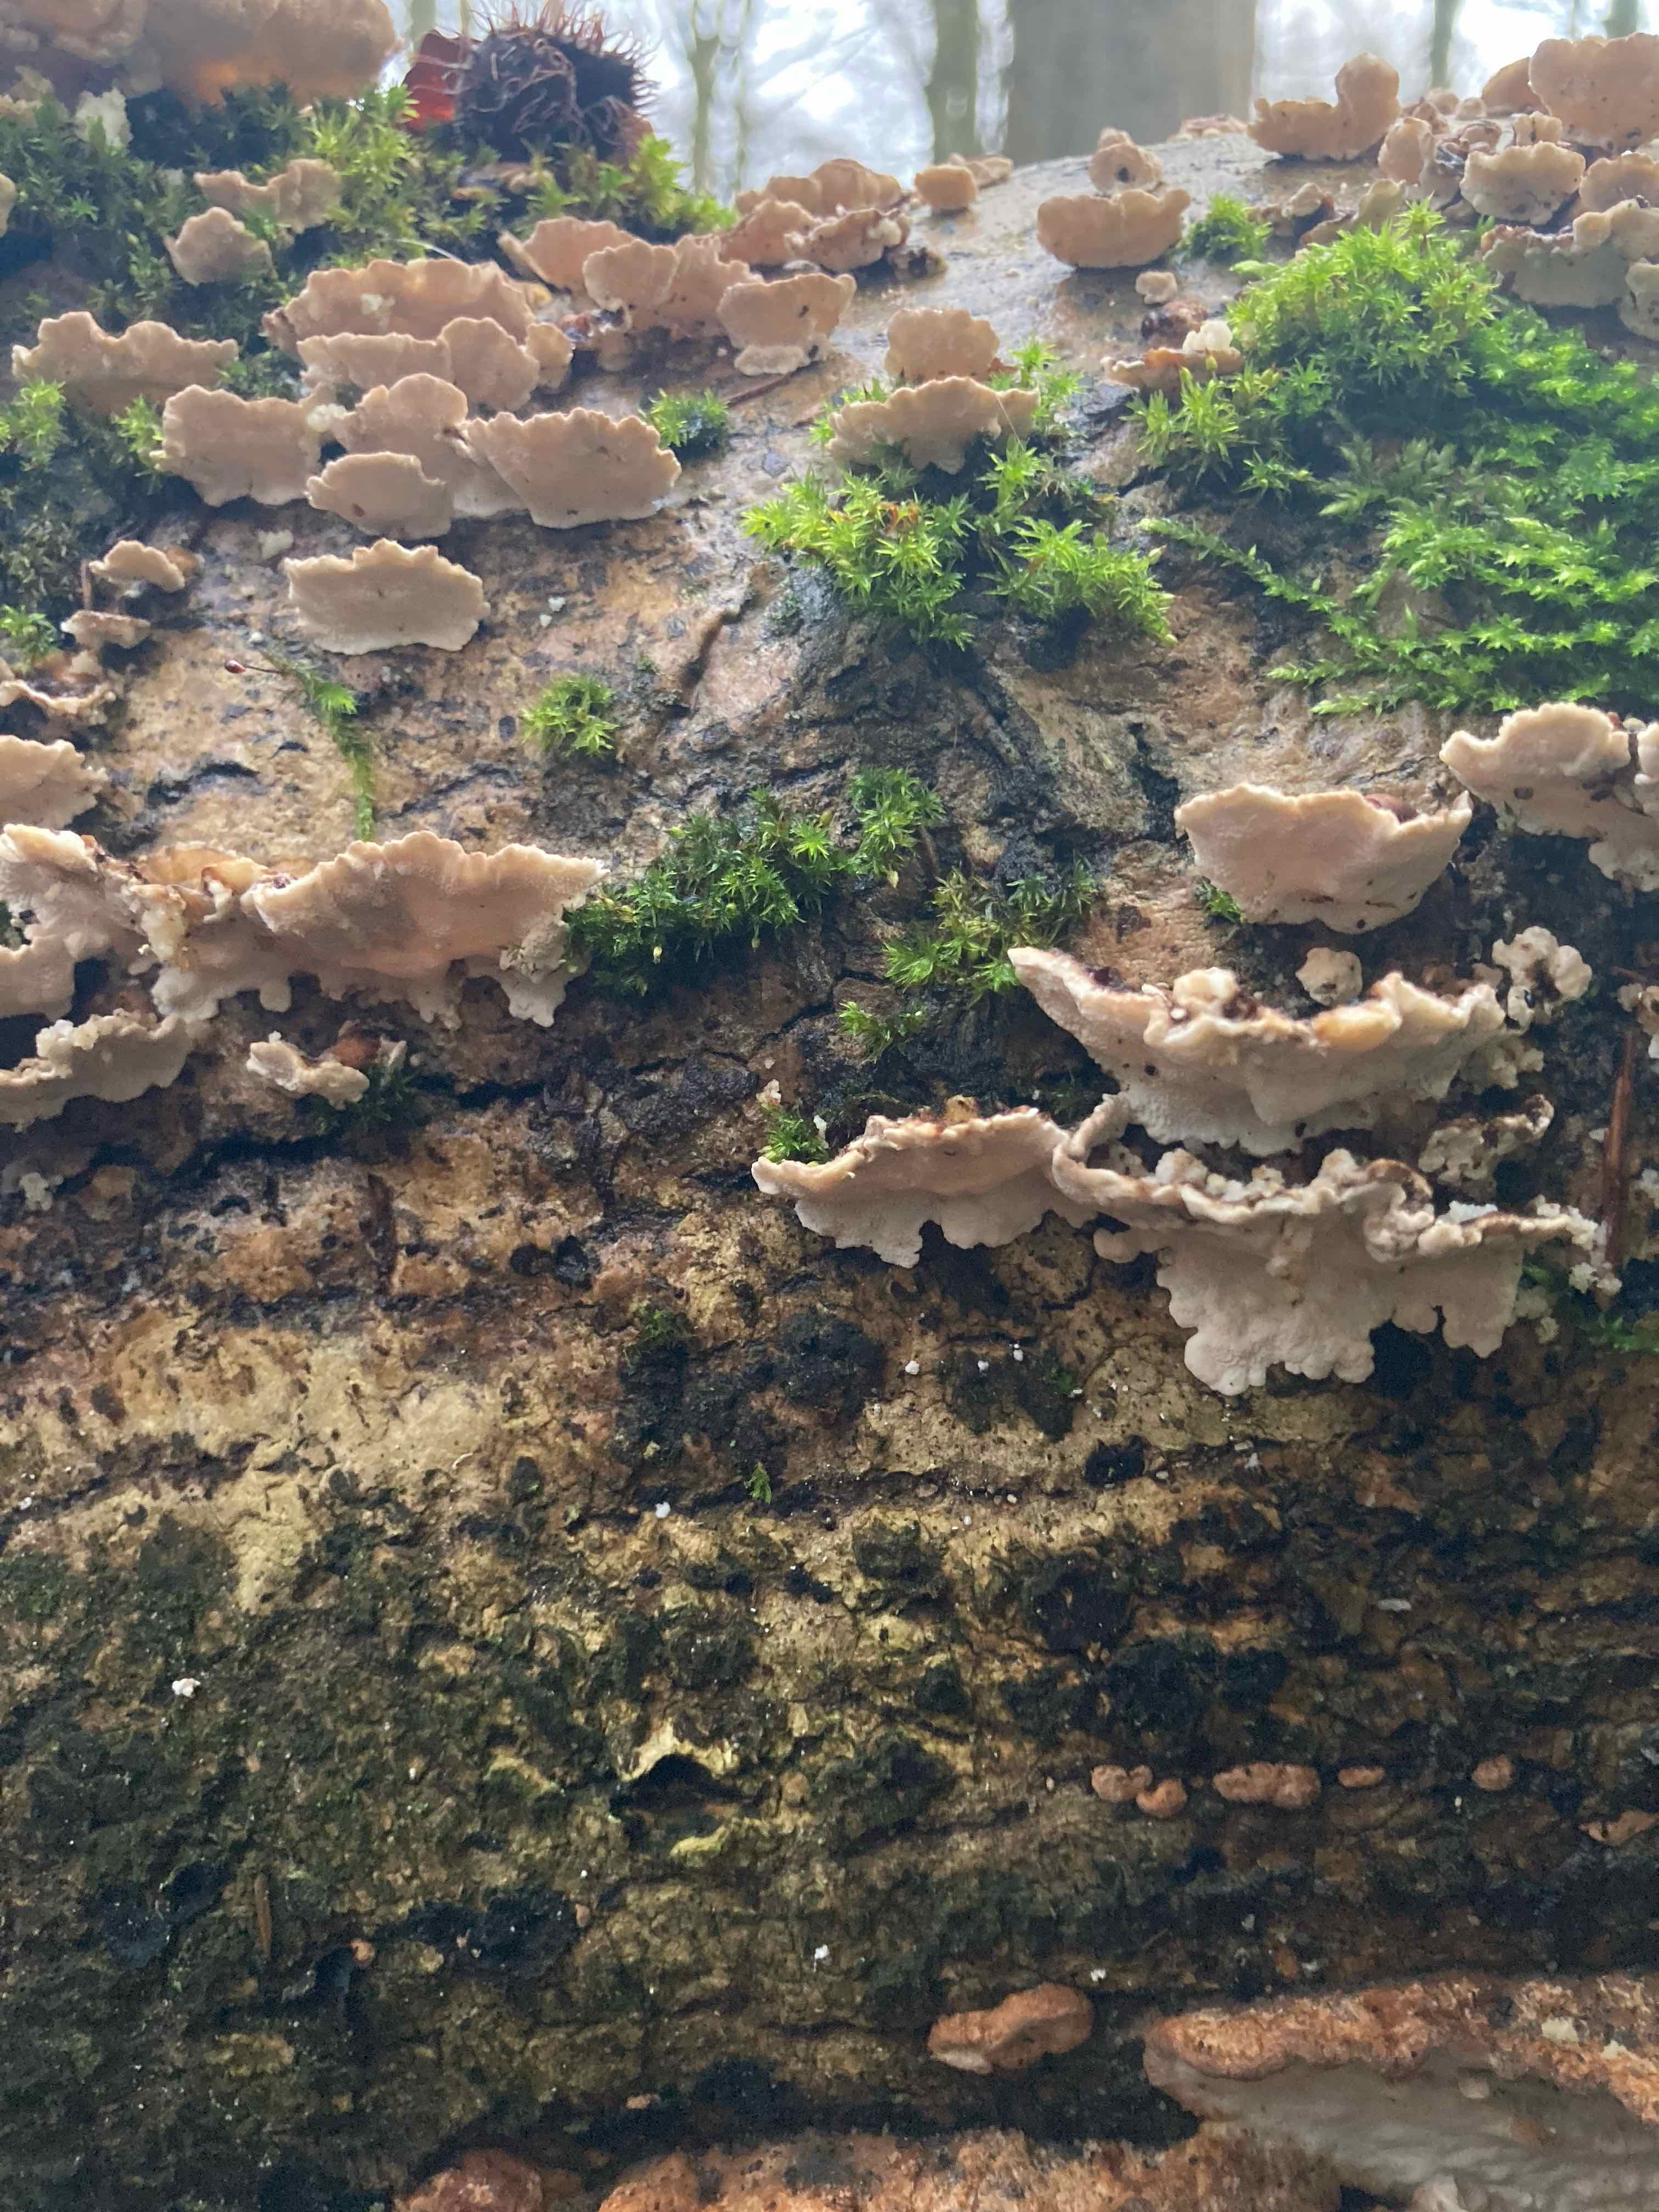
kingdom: Fungi
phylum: Basidiomycota
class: Agaricomycetes
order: Polyporales
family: Polyporaceae
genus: Trametes
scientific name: Trametes versicolor
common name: broget læderporesvamp
